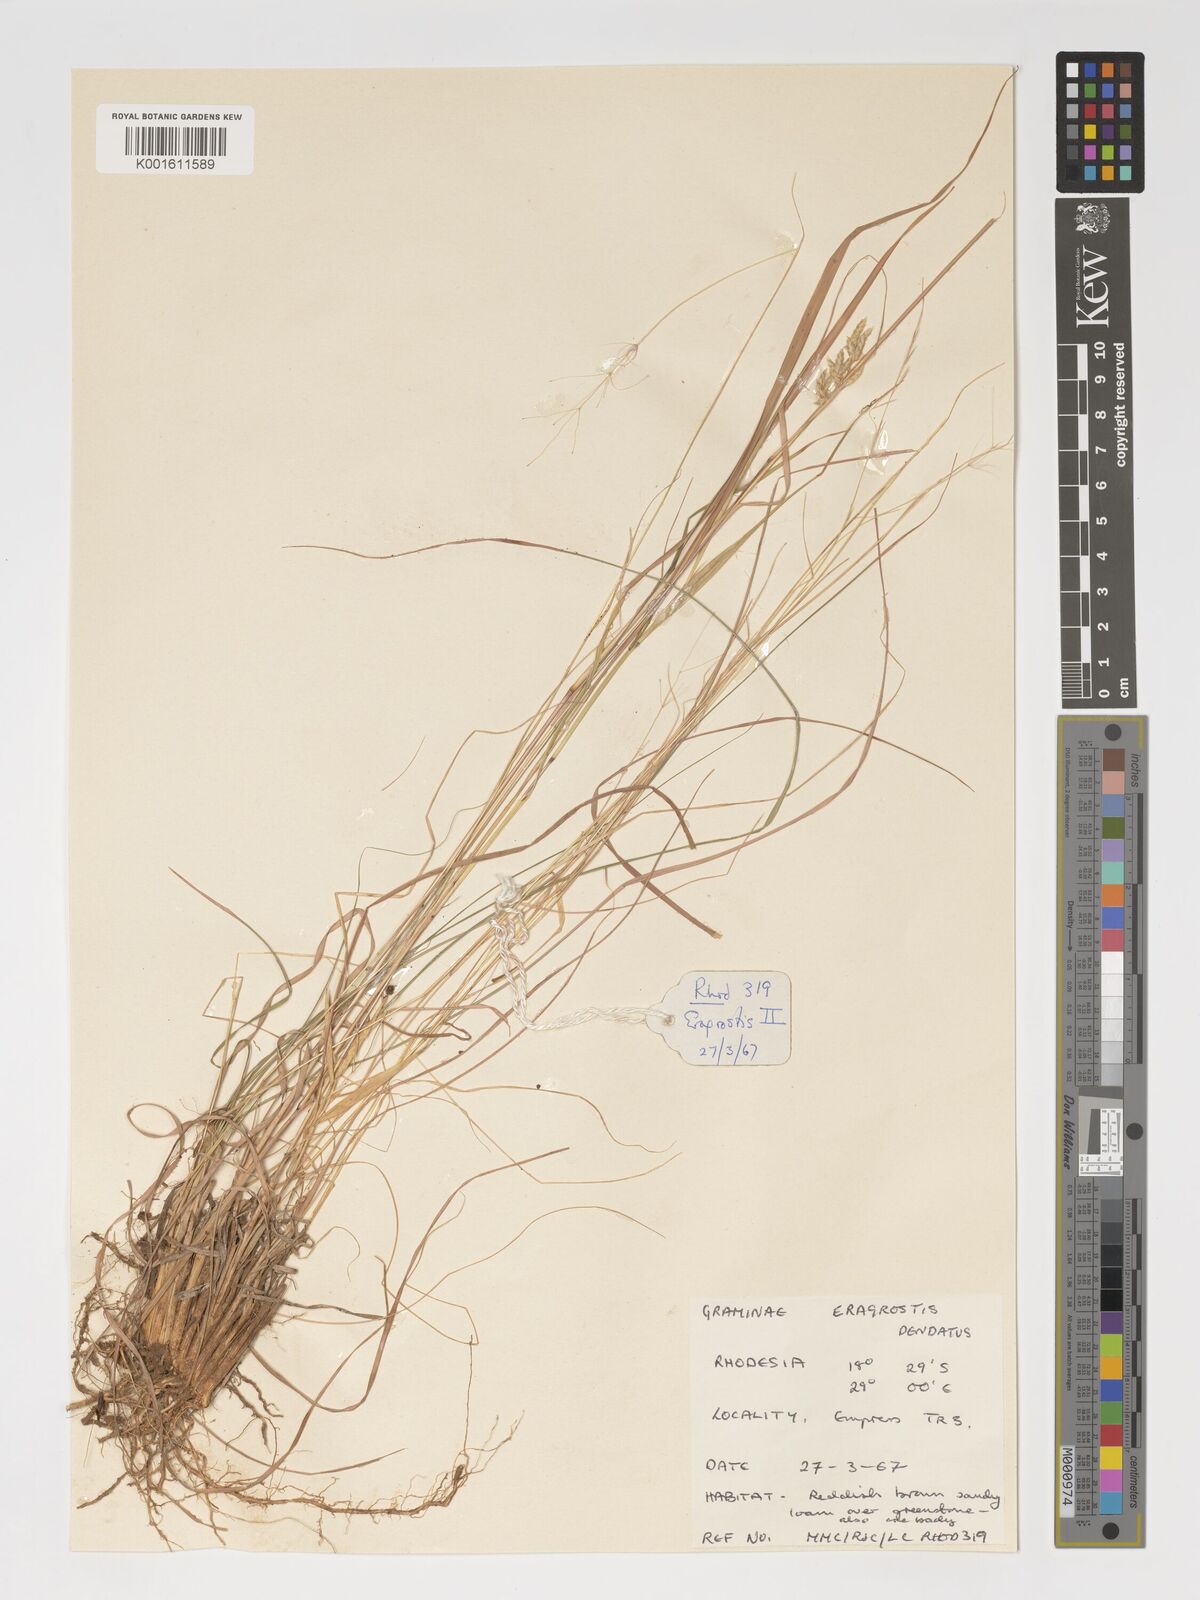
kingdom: Plantae
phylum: Tracheophyta
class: Liliopsida
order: Poales
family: Poaceae
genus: Eragrostis
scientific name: Eragrostis
